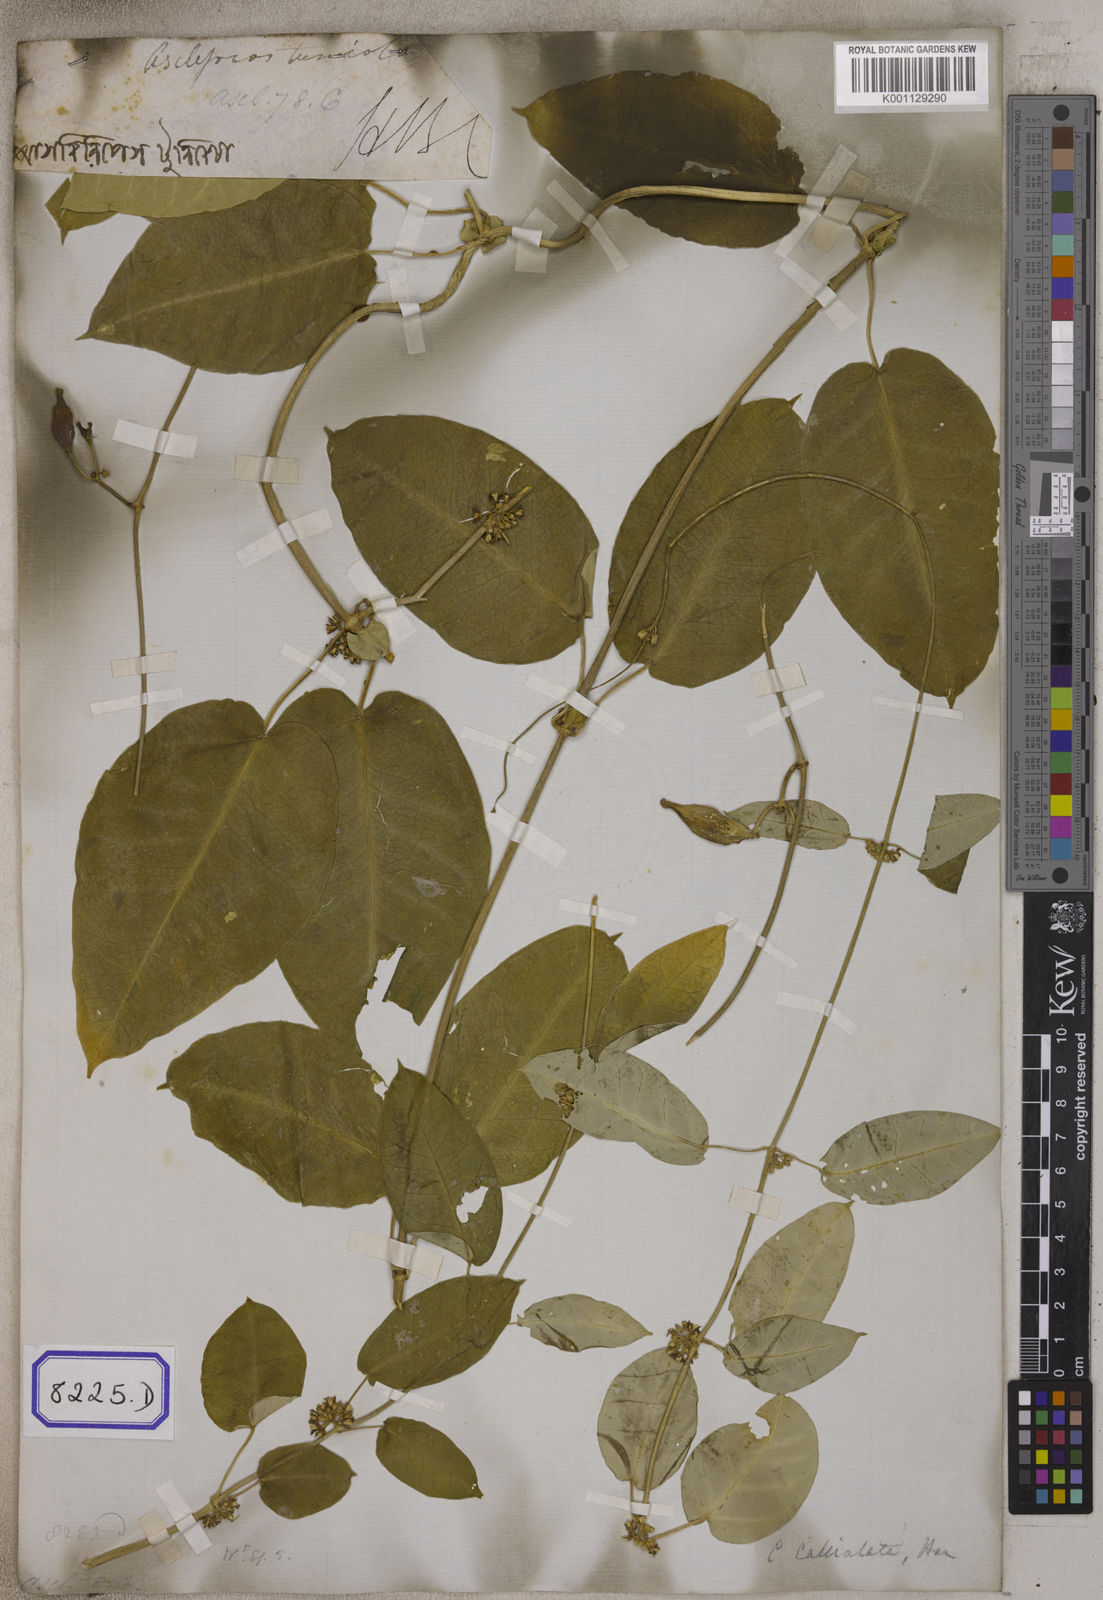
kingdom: Plantae
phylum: Tracheophyta
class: Magnoliopsida
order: Gentianales
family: Apocynaceae
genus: Cynanchum
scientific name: Cynanchum tunicatum
